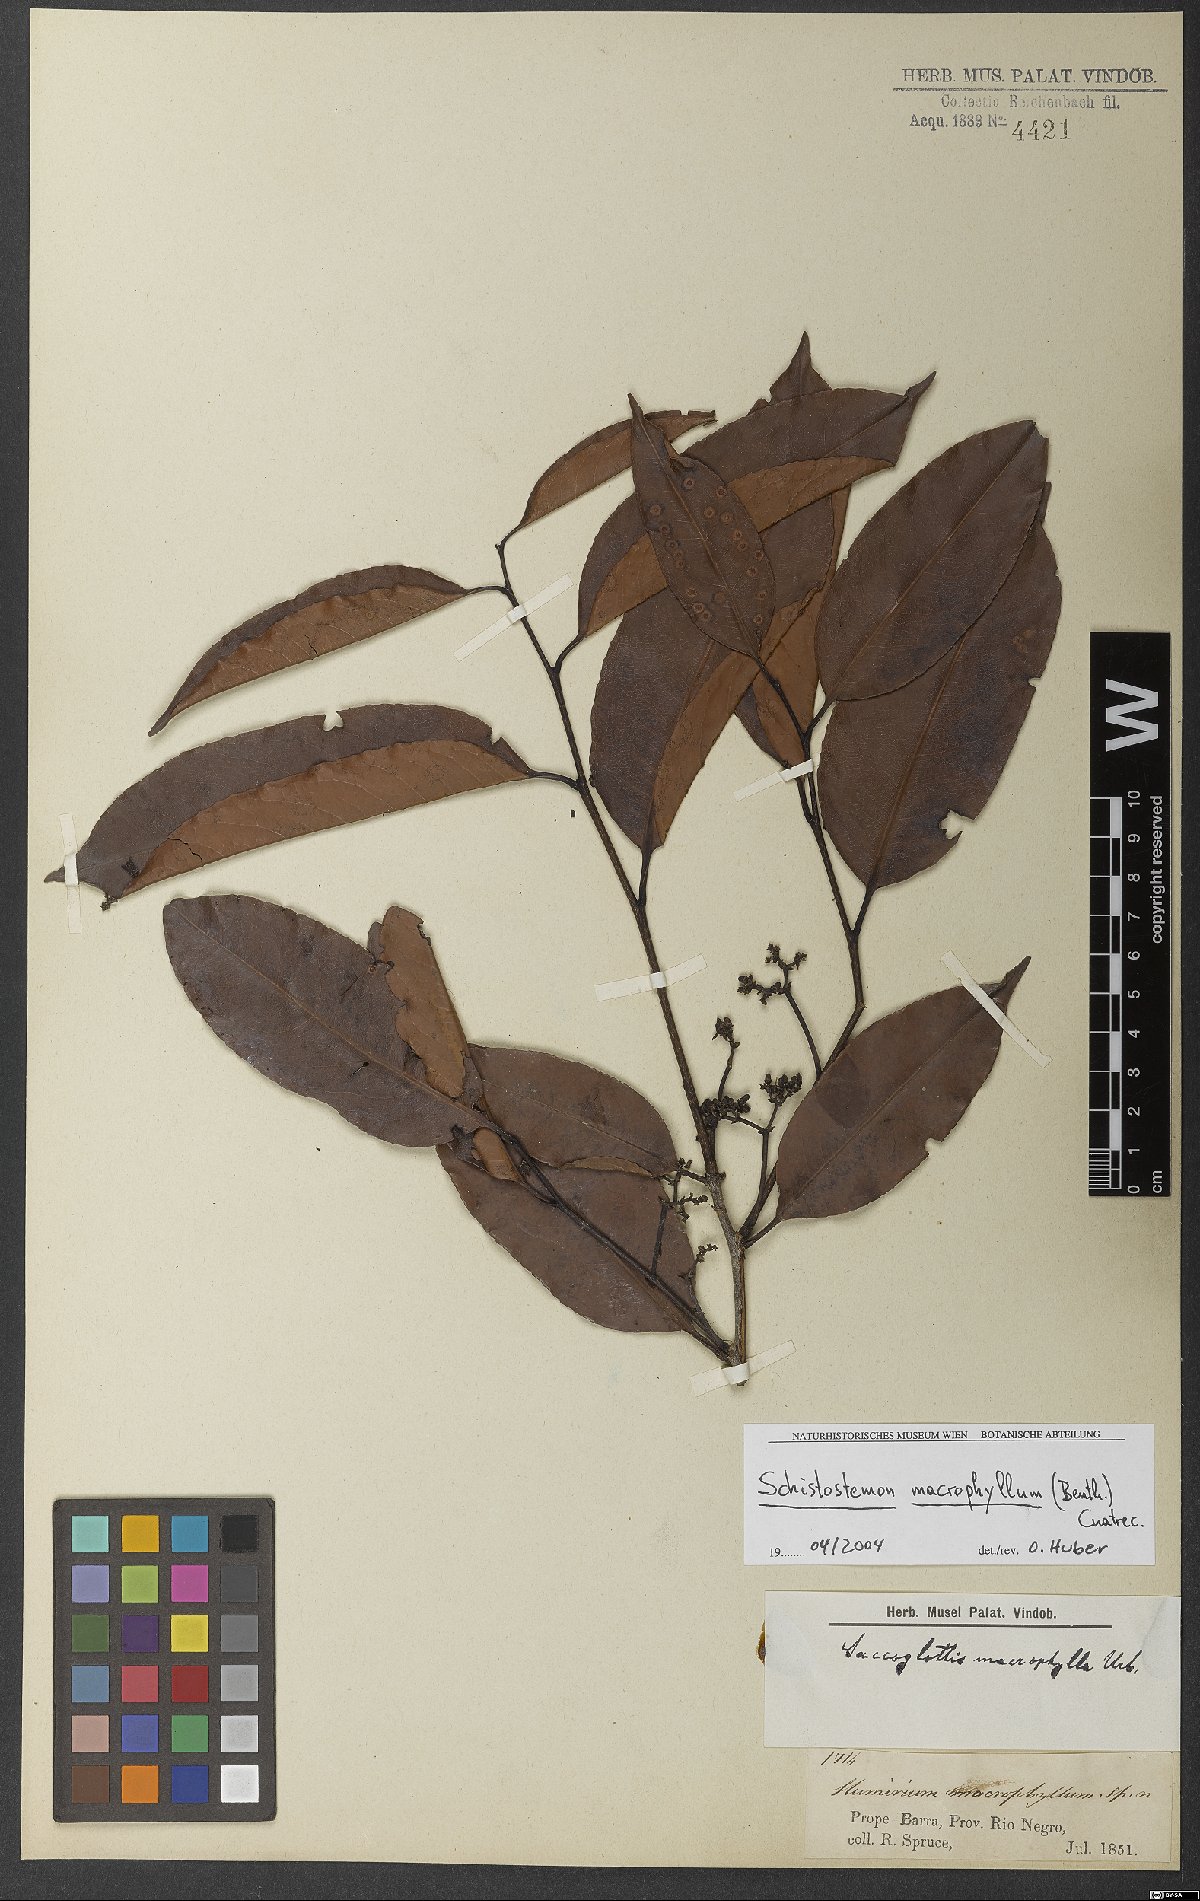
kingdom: Plantae
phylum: Tracheophyta
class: Magnoliopsida
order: Malpighiales
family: Humiriaceae
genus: Schistostemon
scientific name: Schistostemon macrophyllum
